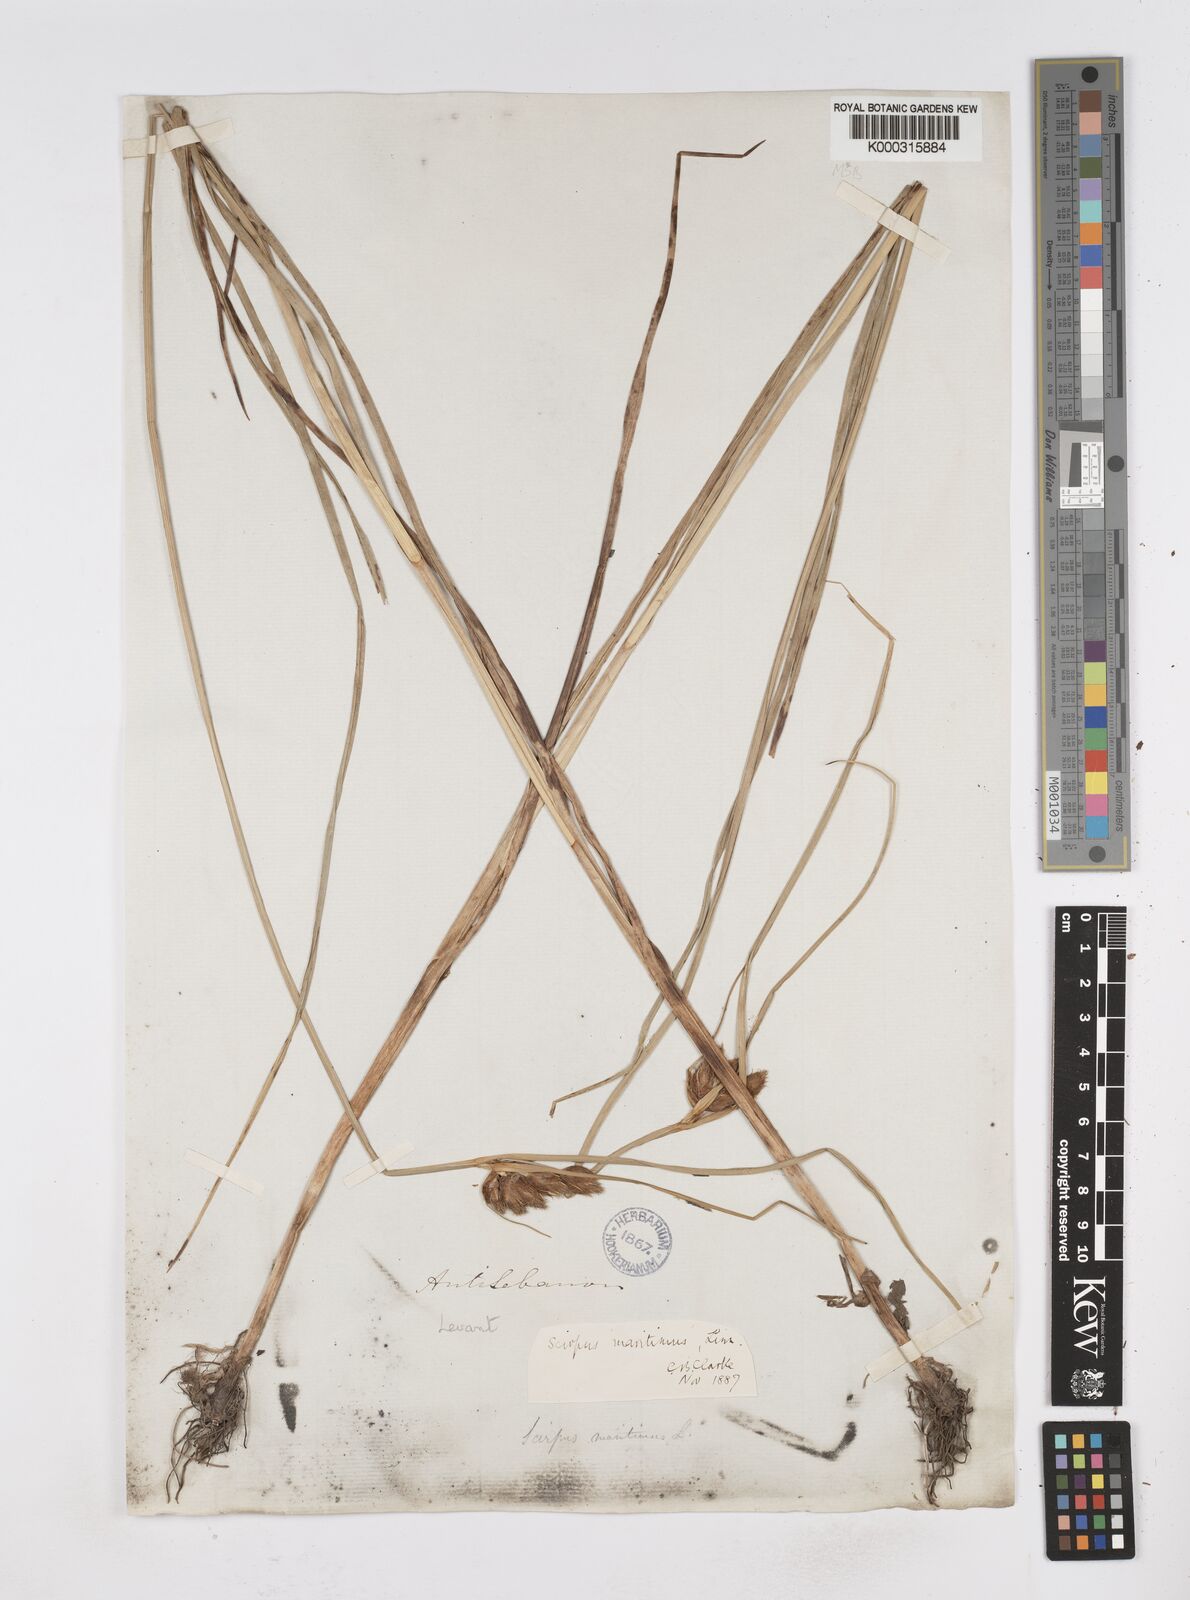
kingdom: Plantae
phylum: Tracheophyta
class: Liliopsida
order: Poales
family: Cyperaceae
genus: Bolboschoenus
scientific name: Bolboschoenus maritimus
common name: Sea club-rush
